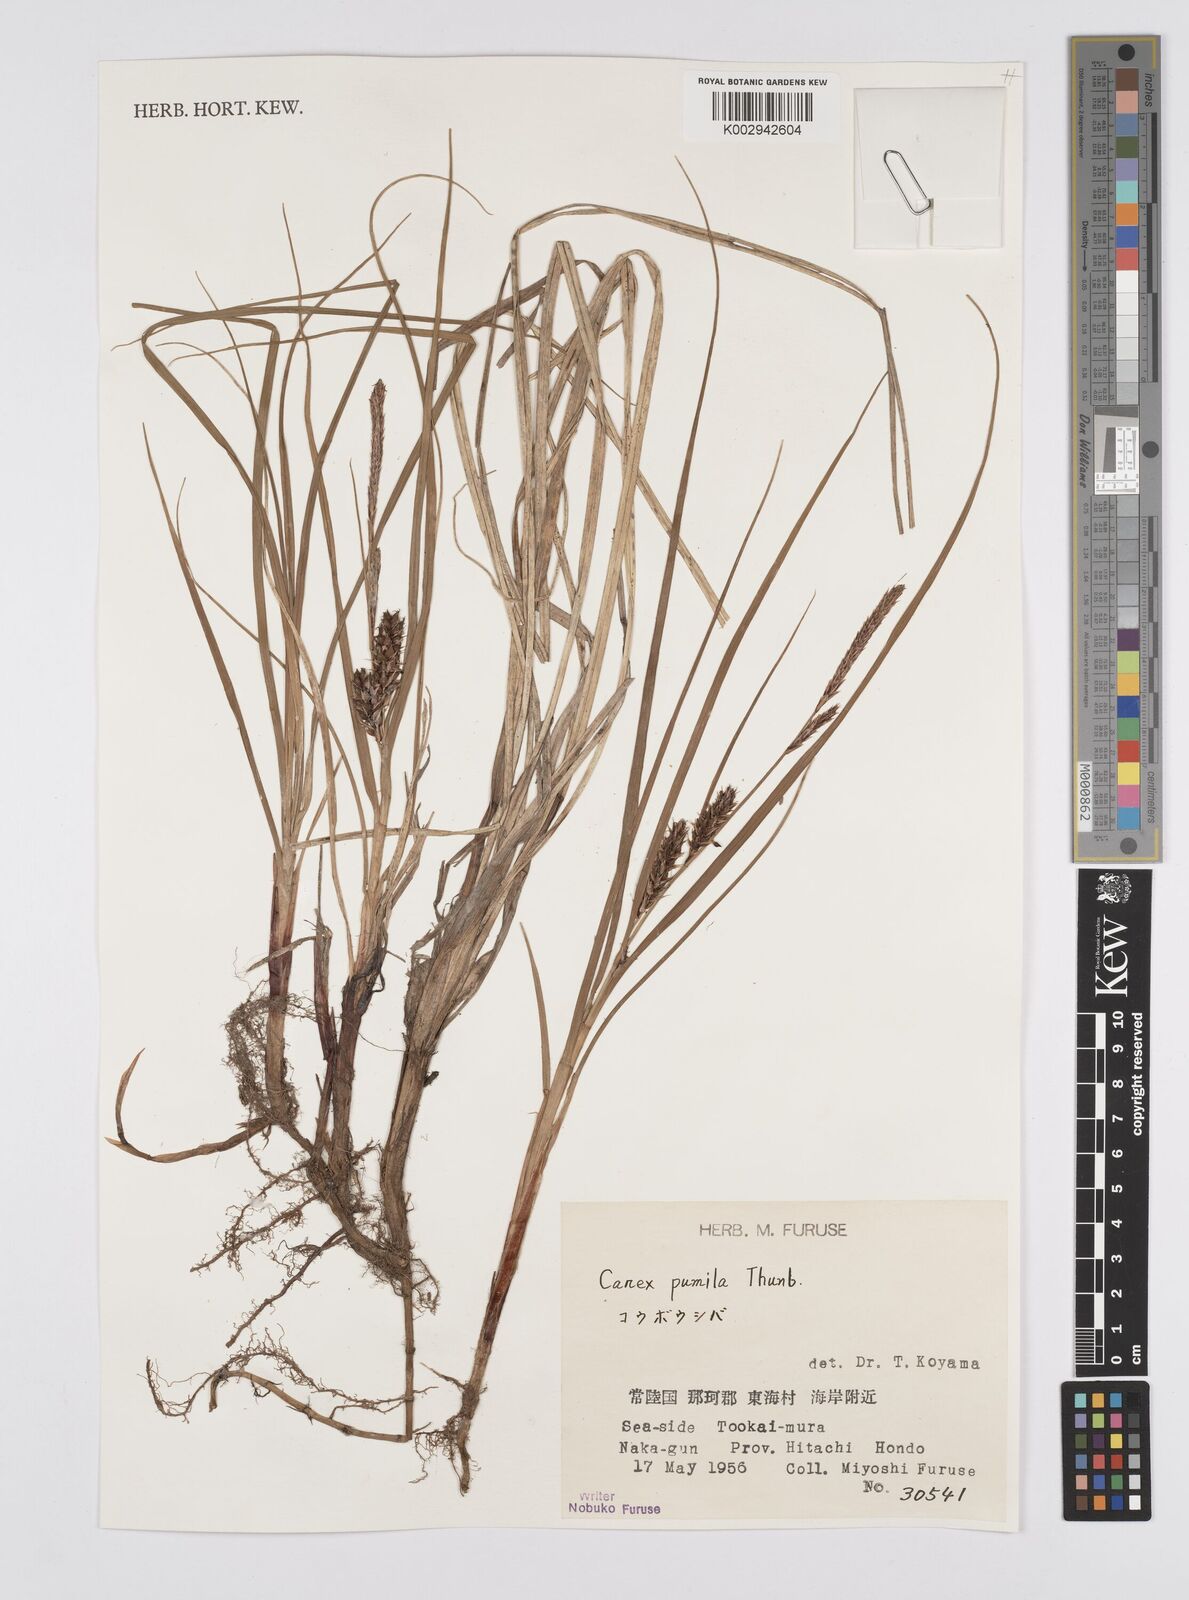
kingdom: Plantae
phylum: Tracheophyta
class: Liliopsida
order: Poales
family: Cyperaceae
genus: Carex
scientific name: Carex pumila
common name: Dwarf sedge
